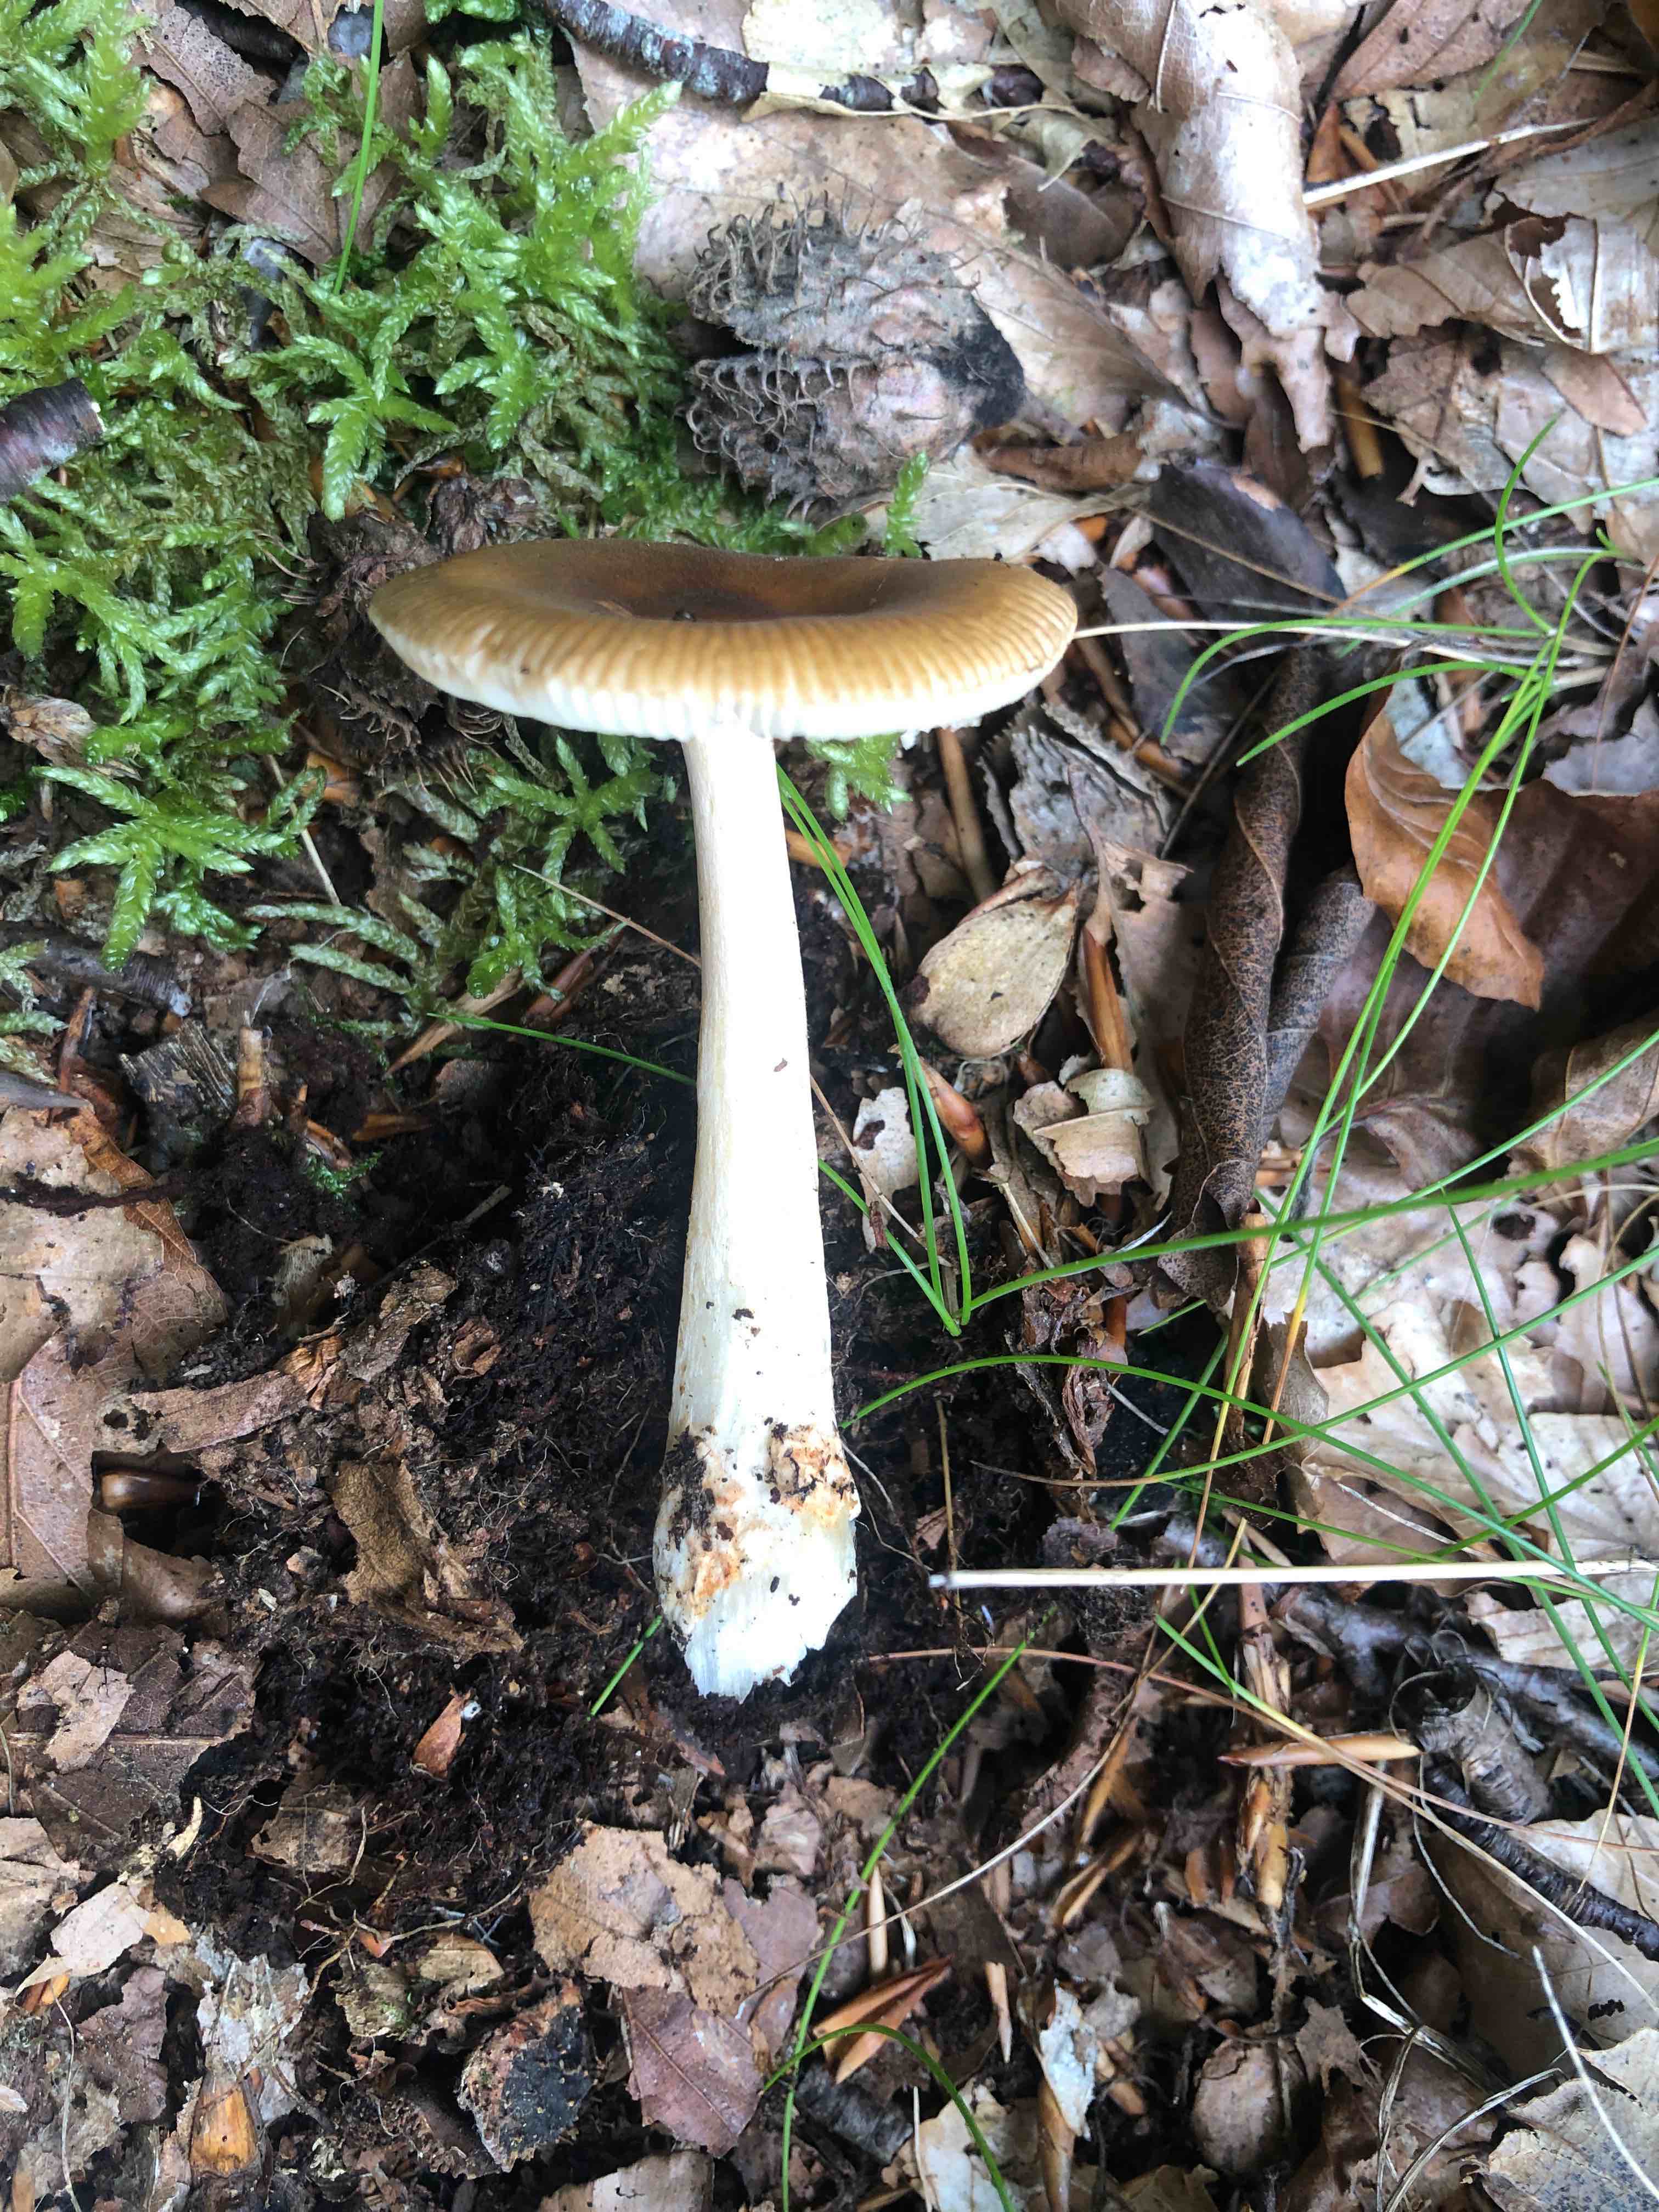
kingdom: Fungi
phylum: Basidiomycota
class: Agaricomycetes
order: Agaricales
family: Amanitaceae
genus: Amanita
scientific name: Amanita fulva
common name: brun kam-fluesvamp
